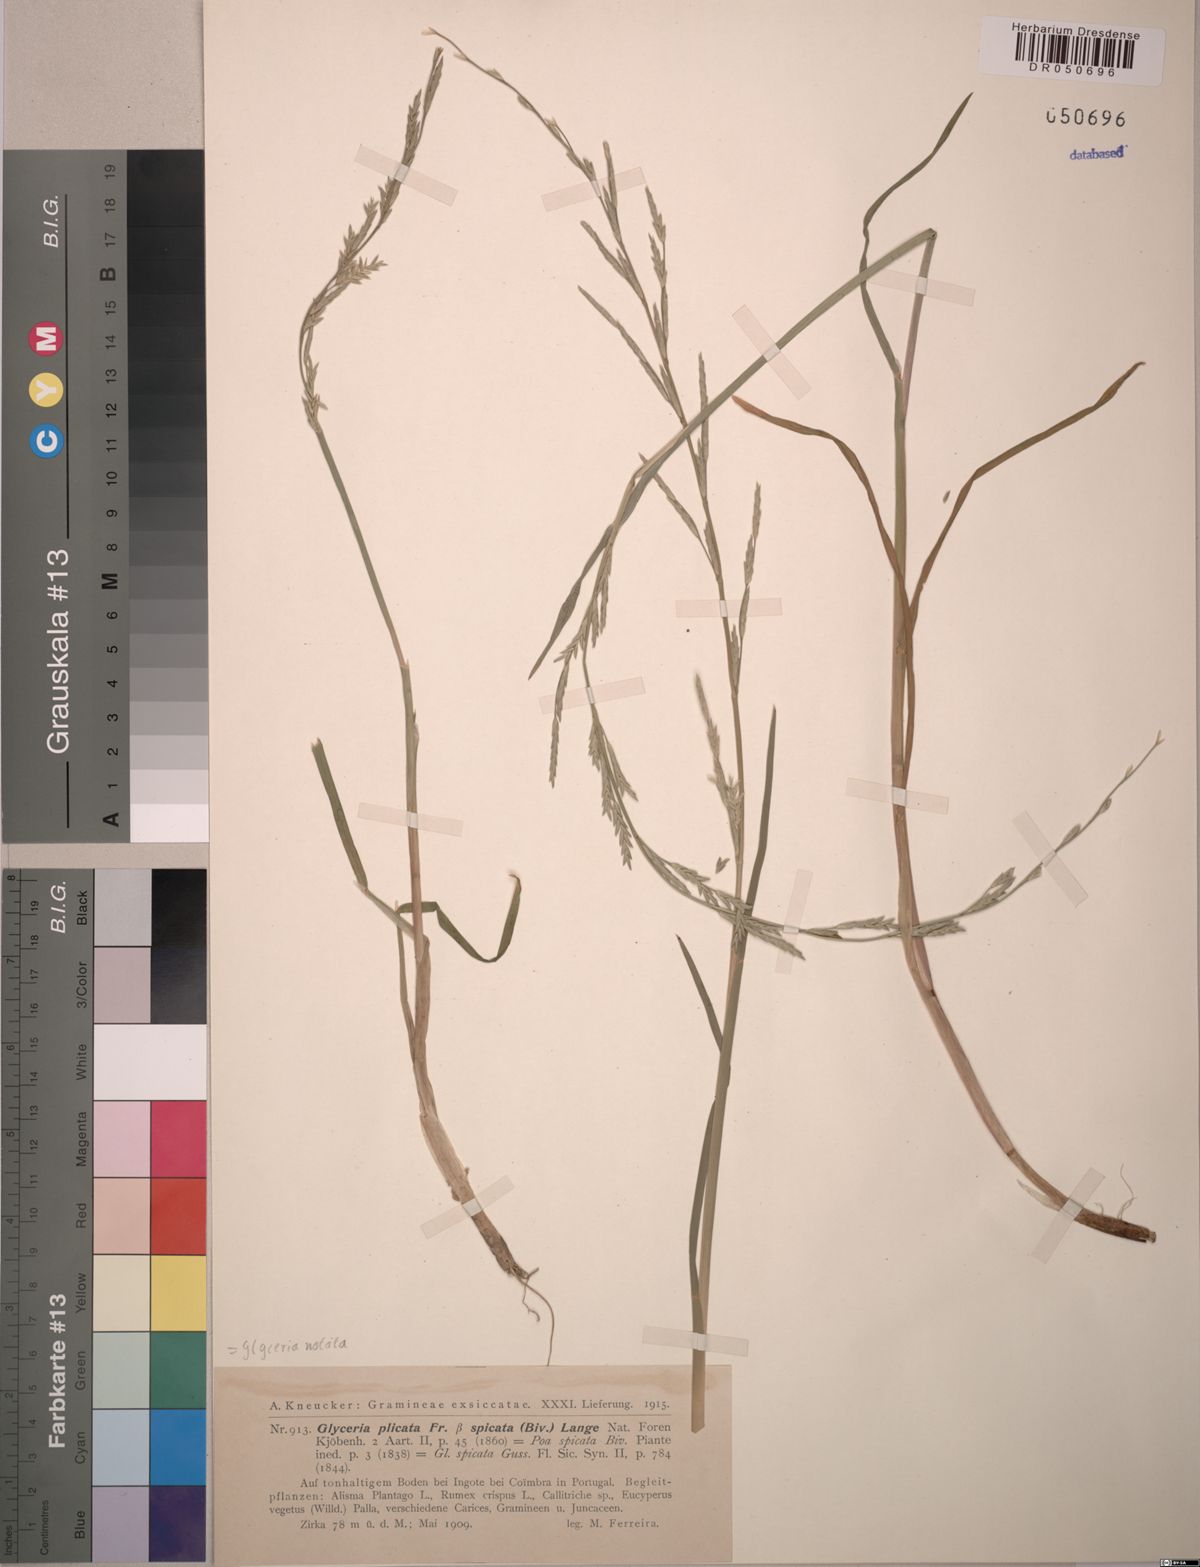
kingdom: Plantae
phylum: Tracheophyta
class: Liliopsida
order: Poales
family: Poaceae
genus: Glyceria
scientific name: Glyceria notata
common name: Plicate sweet-grass
